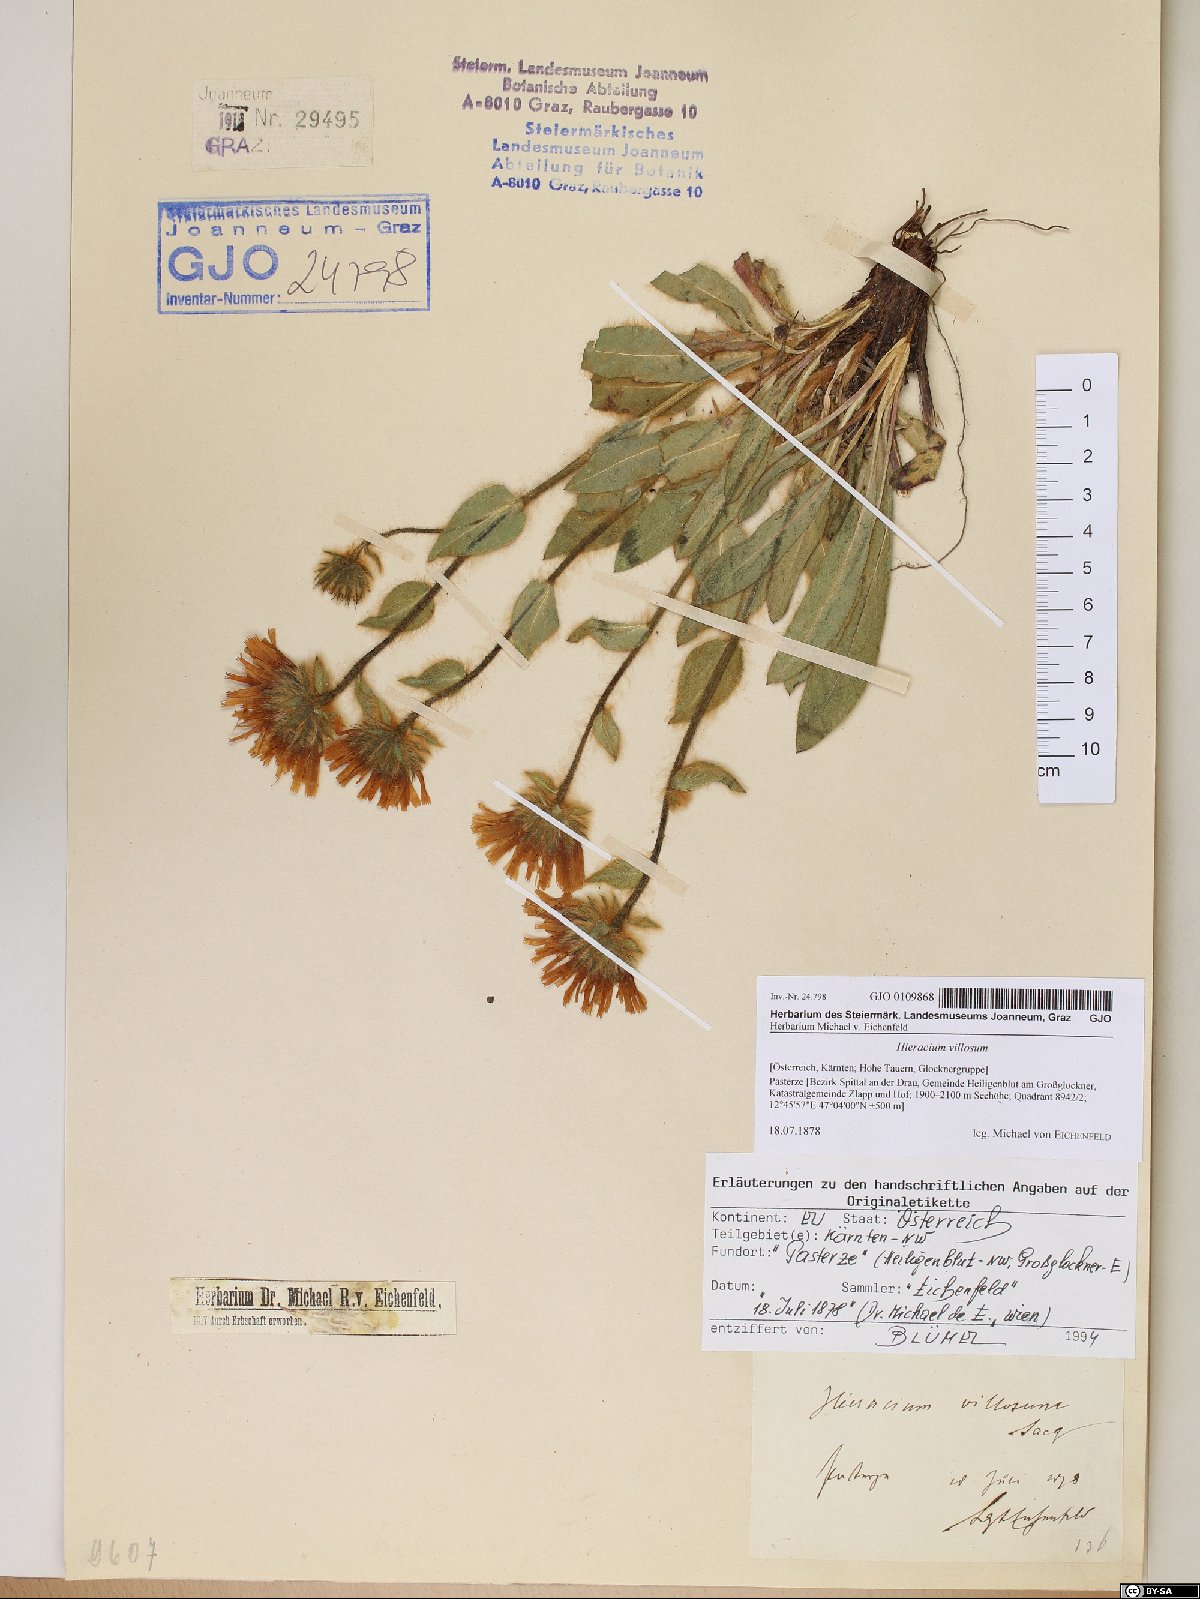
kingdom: Plantae
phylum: Tracheophyta
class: Magnoliopsida
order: Asterales
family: Asteraceae
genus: Hieracium
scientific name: Hieracium villosum
